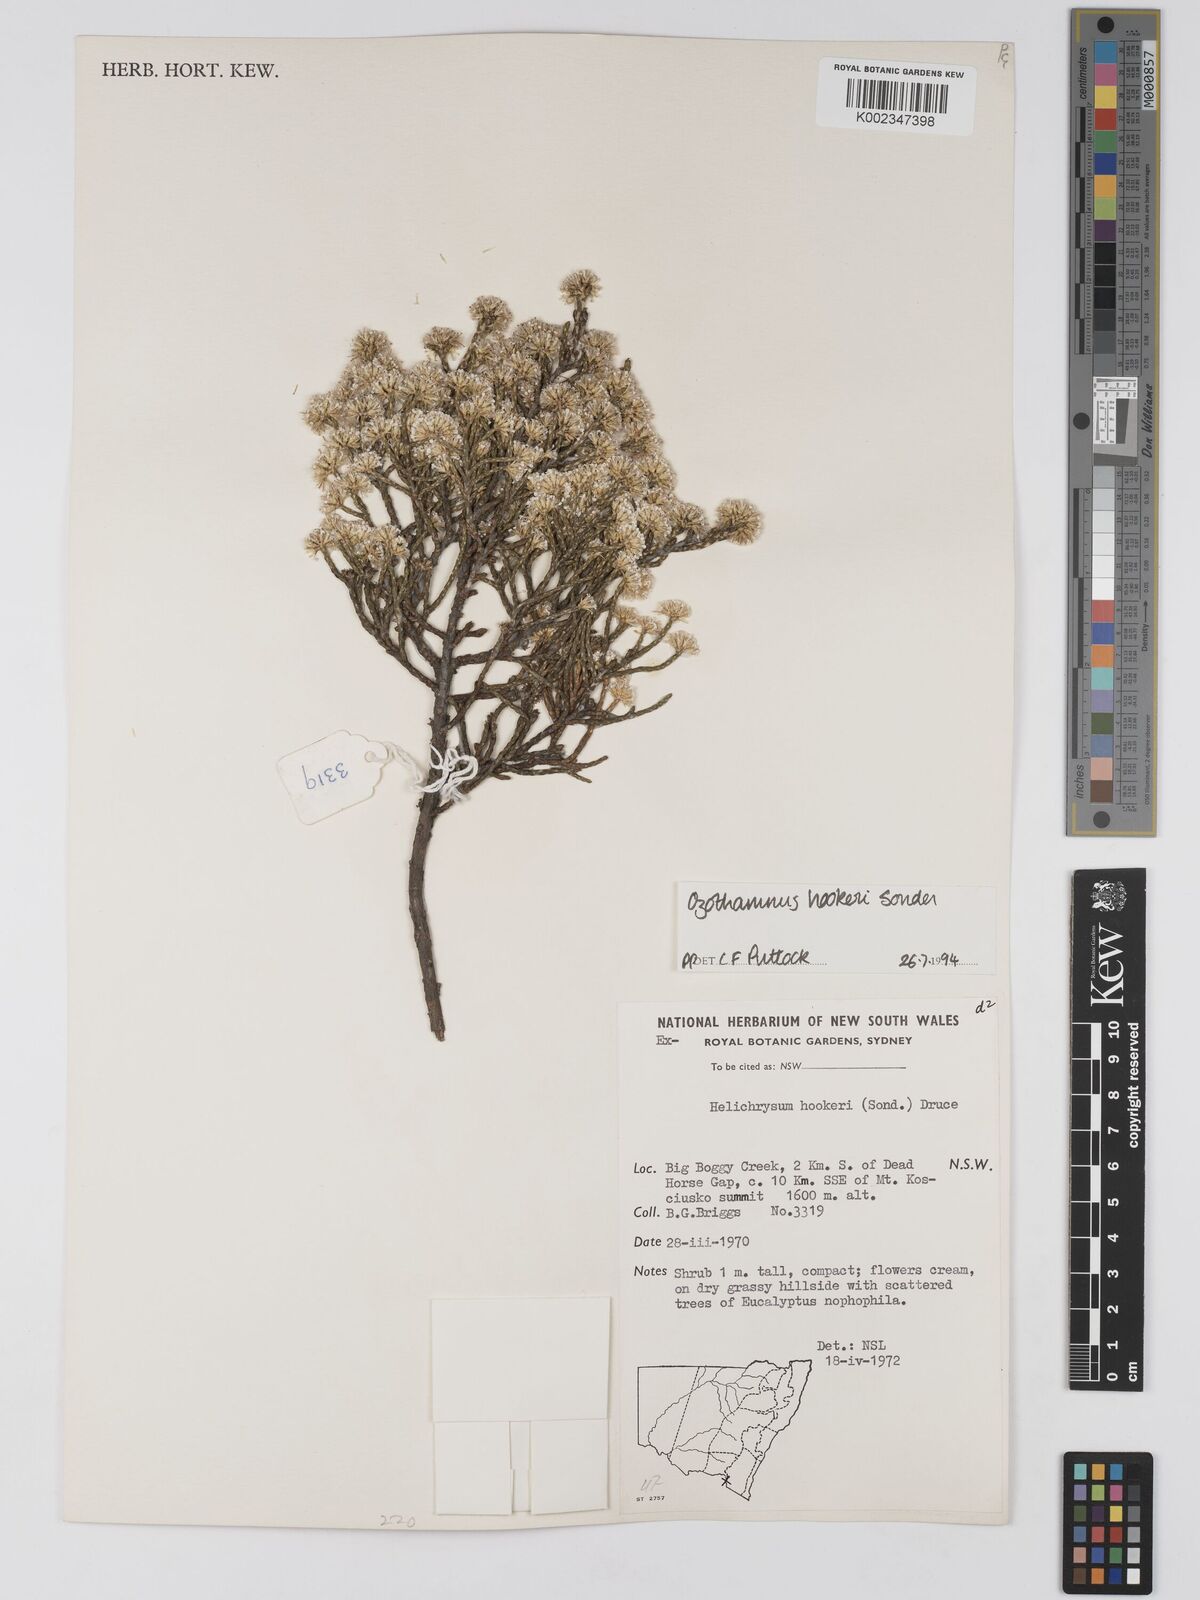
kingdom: Plantae
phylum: Tracheophyta
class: Magnoliopsida
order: Asterales
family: Asteraceae
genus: Ozothamnus
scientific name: Ozothamnus hookeri
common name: Kerosene-bush
